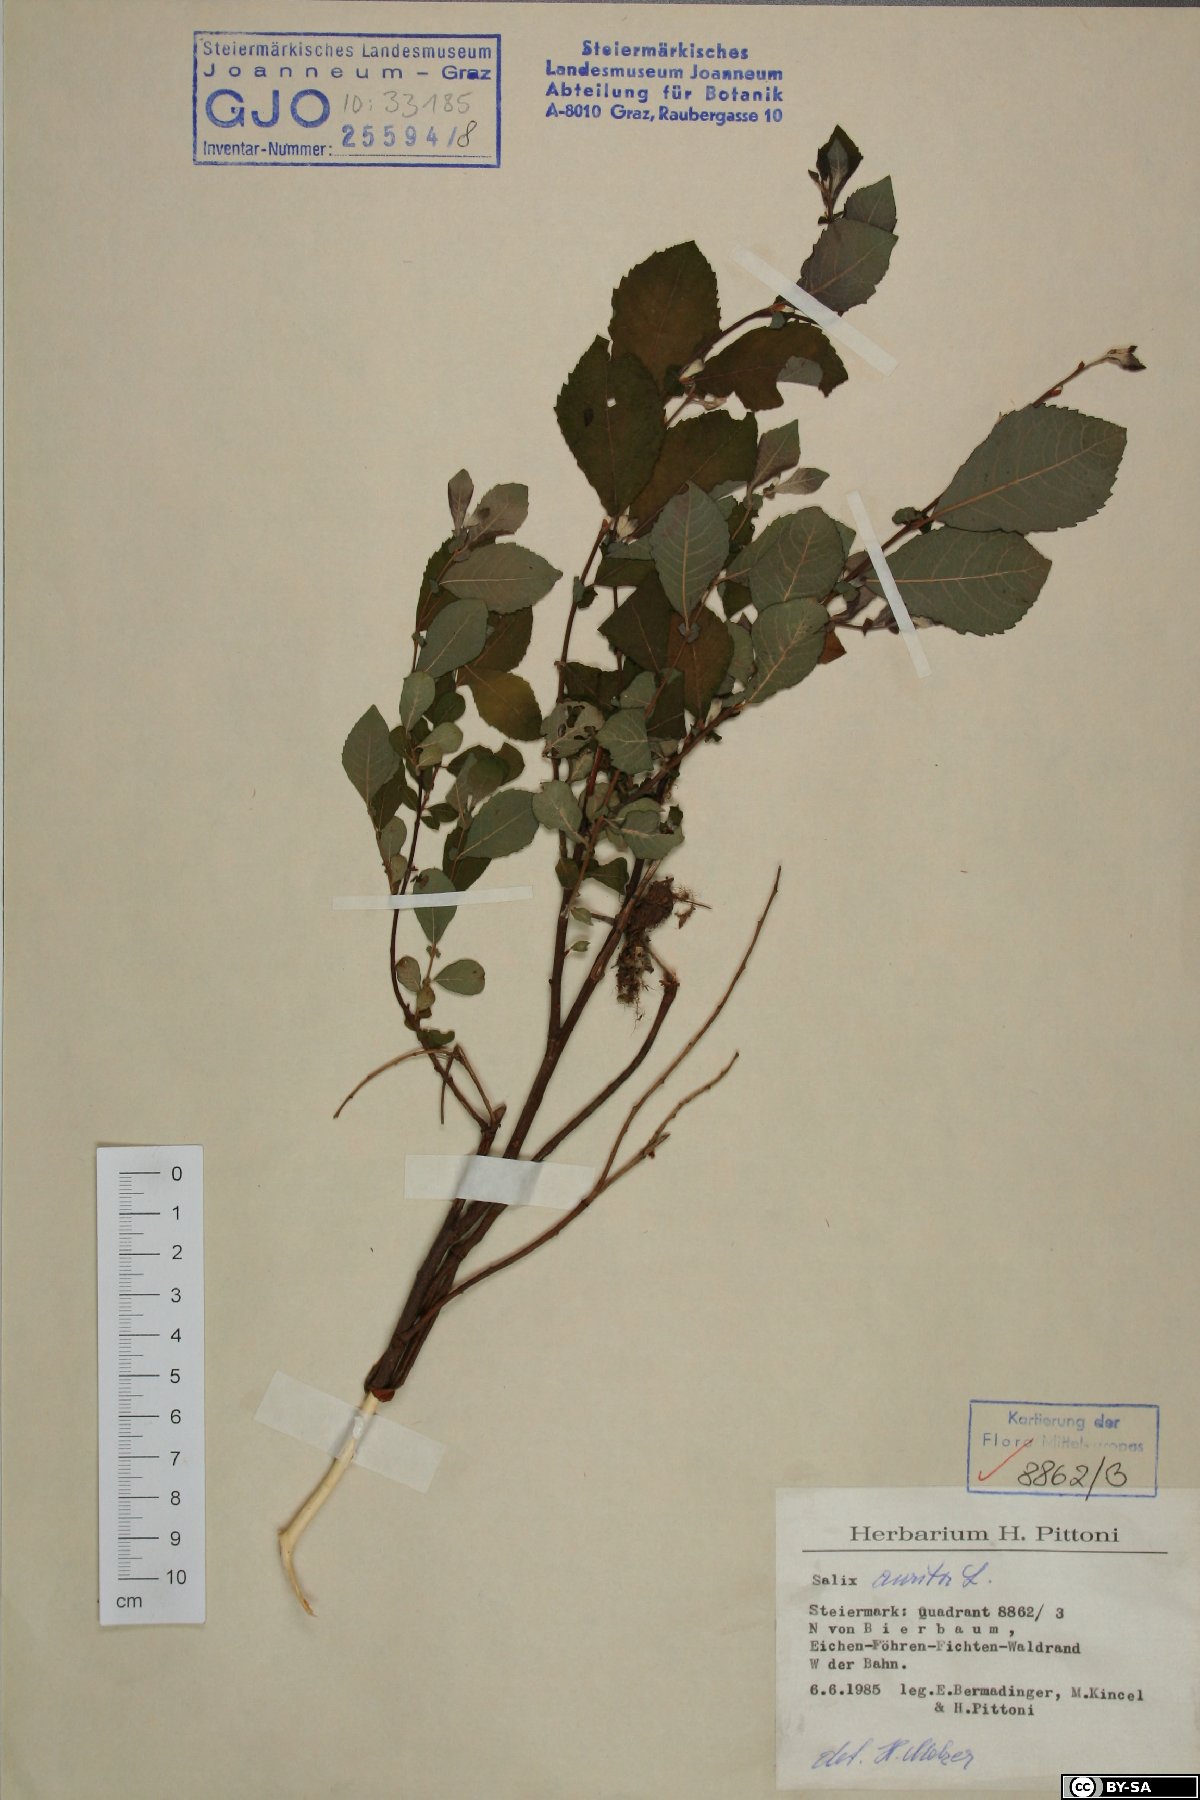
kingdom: Plantae
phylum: Tracheophyta
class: Magnoliopsida
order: Malpighiales
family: Salicaceae
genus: Salix
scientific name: Salix aurita
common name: Eared willow
